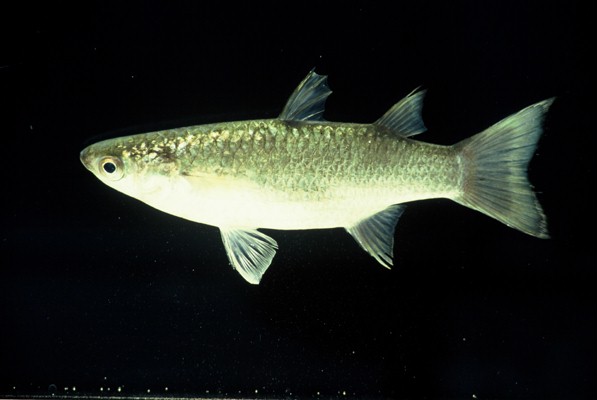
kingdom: Animalia
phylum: Chordata
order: Mugiliformes
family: Mugilidae
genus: Planiliza
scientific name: Planiliza melinopterus
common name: Otomebora mullet
